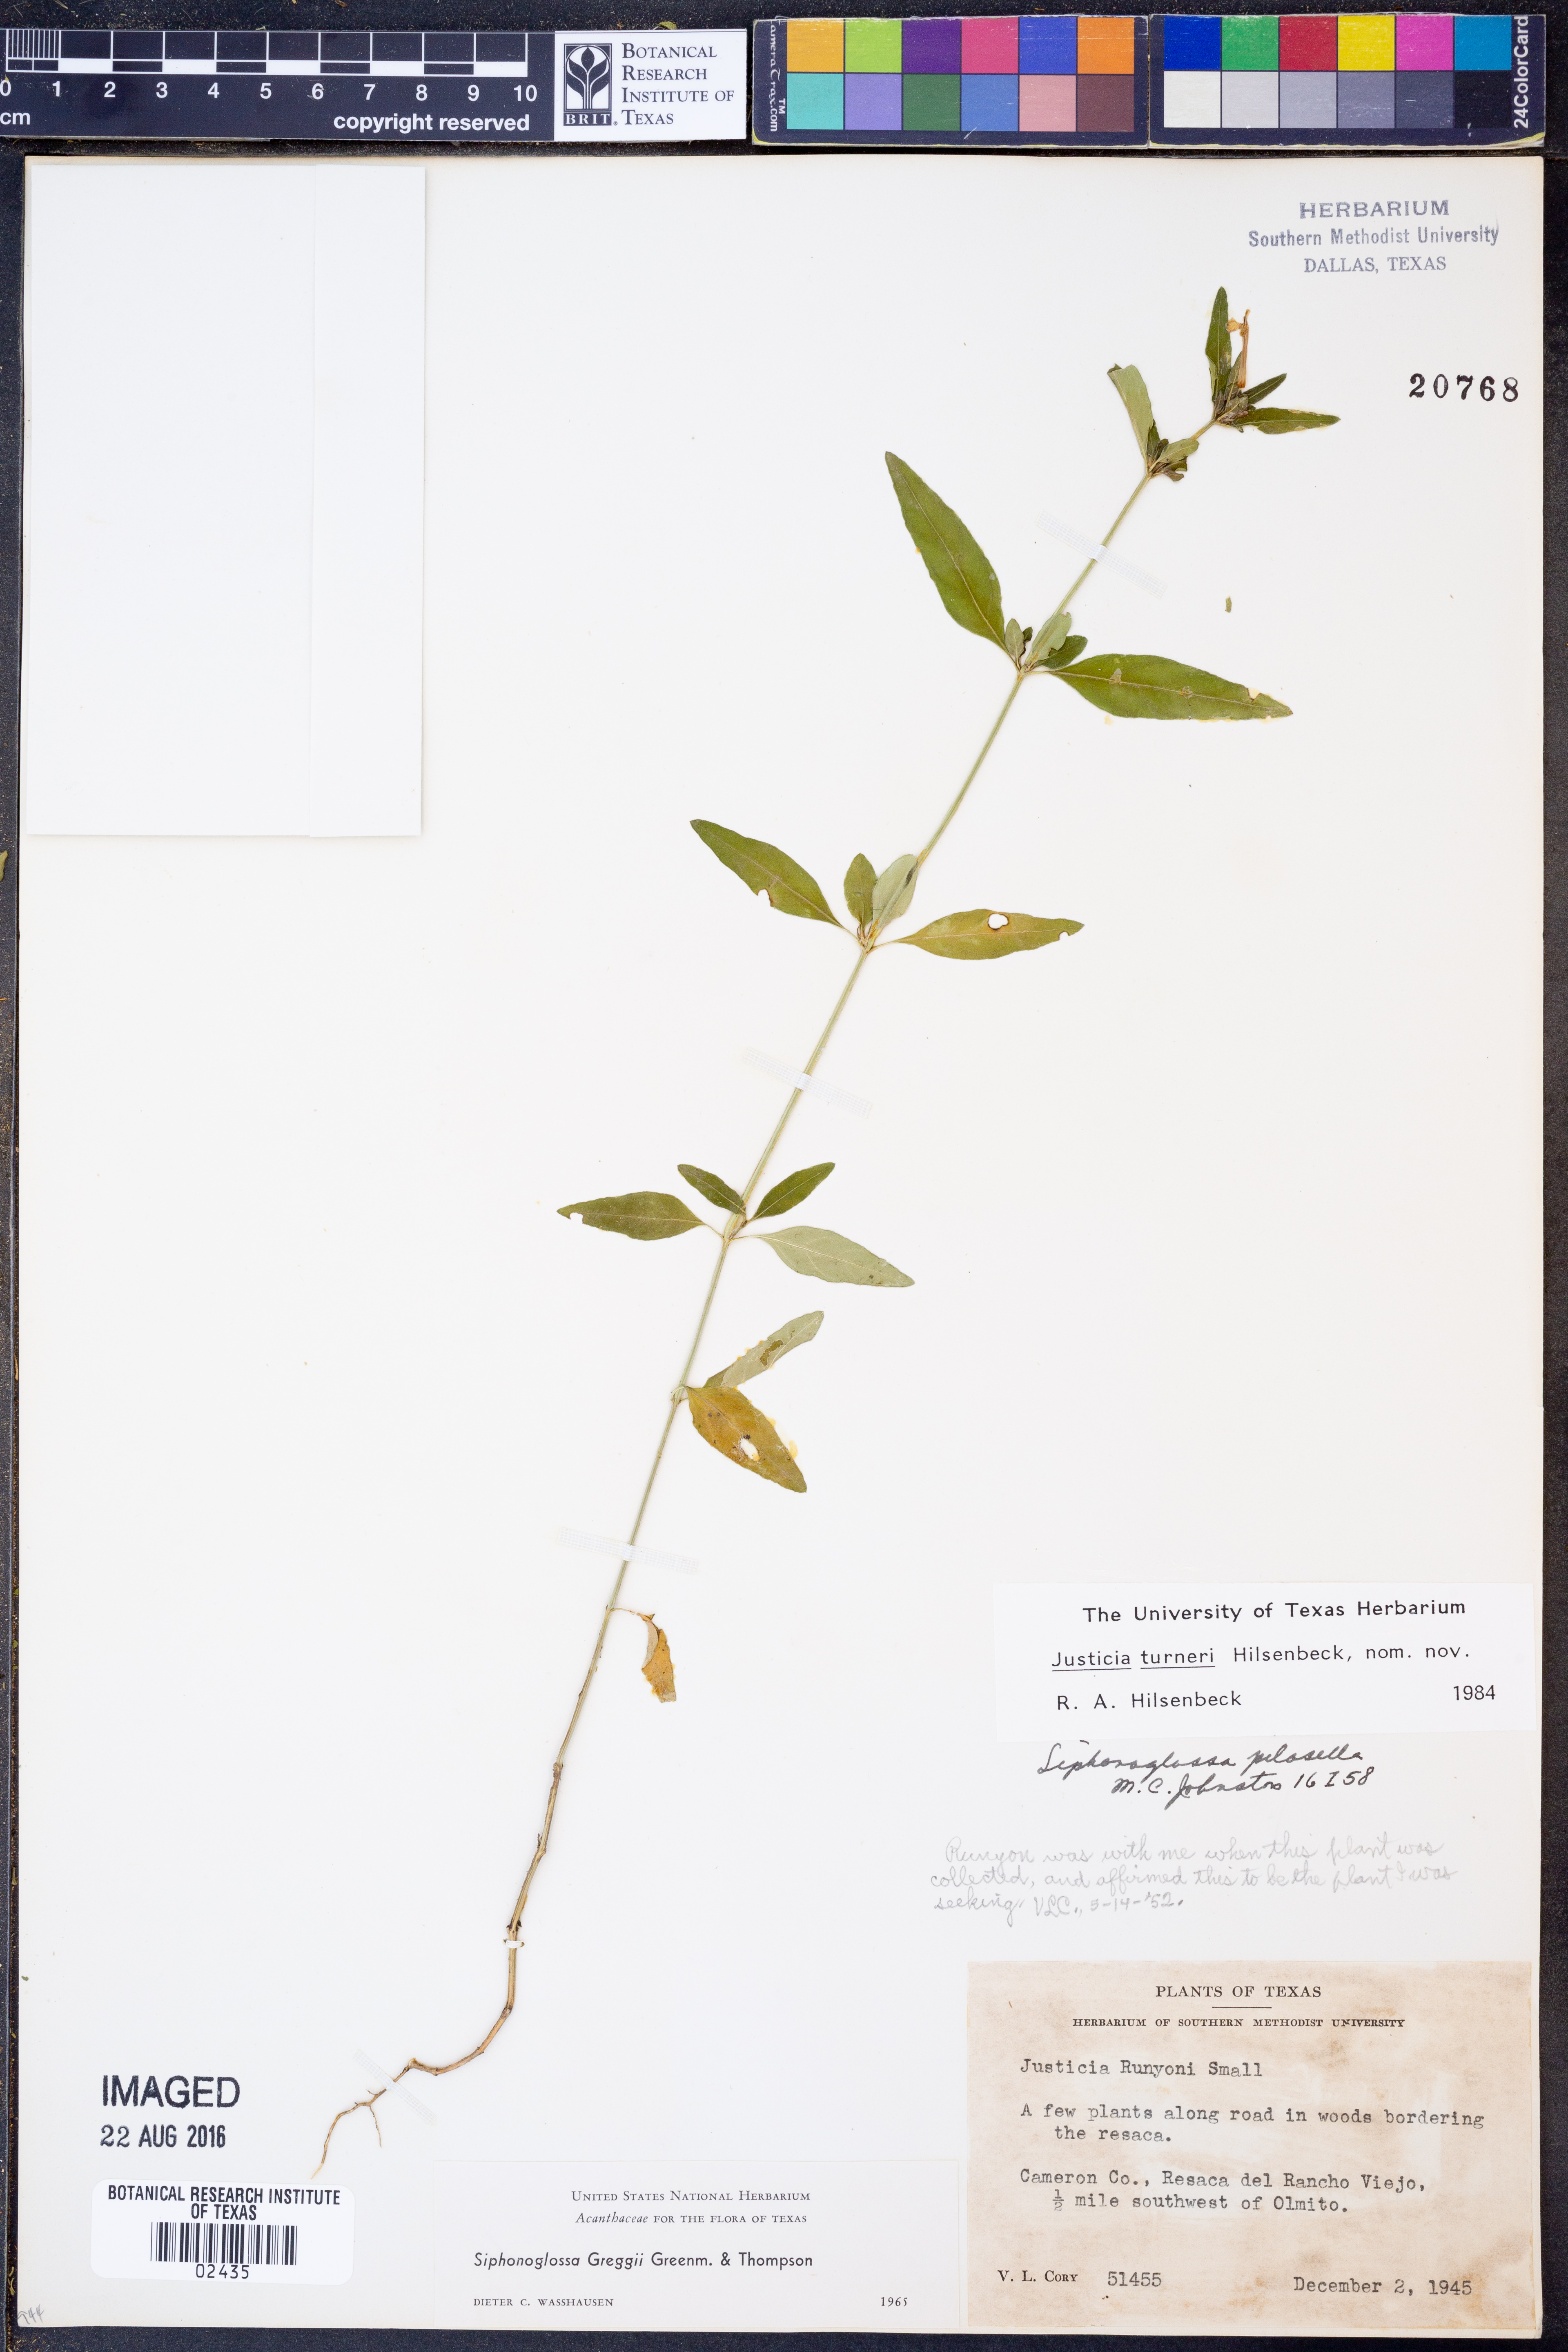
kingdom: Plantae
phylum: Tracheophyta
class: Magnoliopsida
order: Lamiales
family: Acanthaceae
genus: Justicia
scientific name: Justicia turneri
